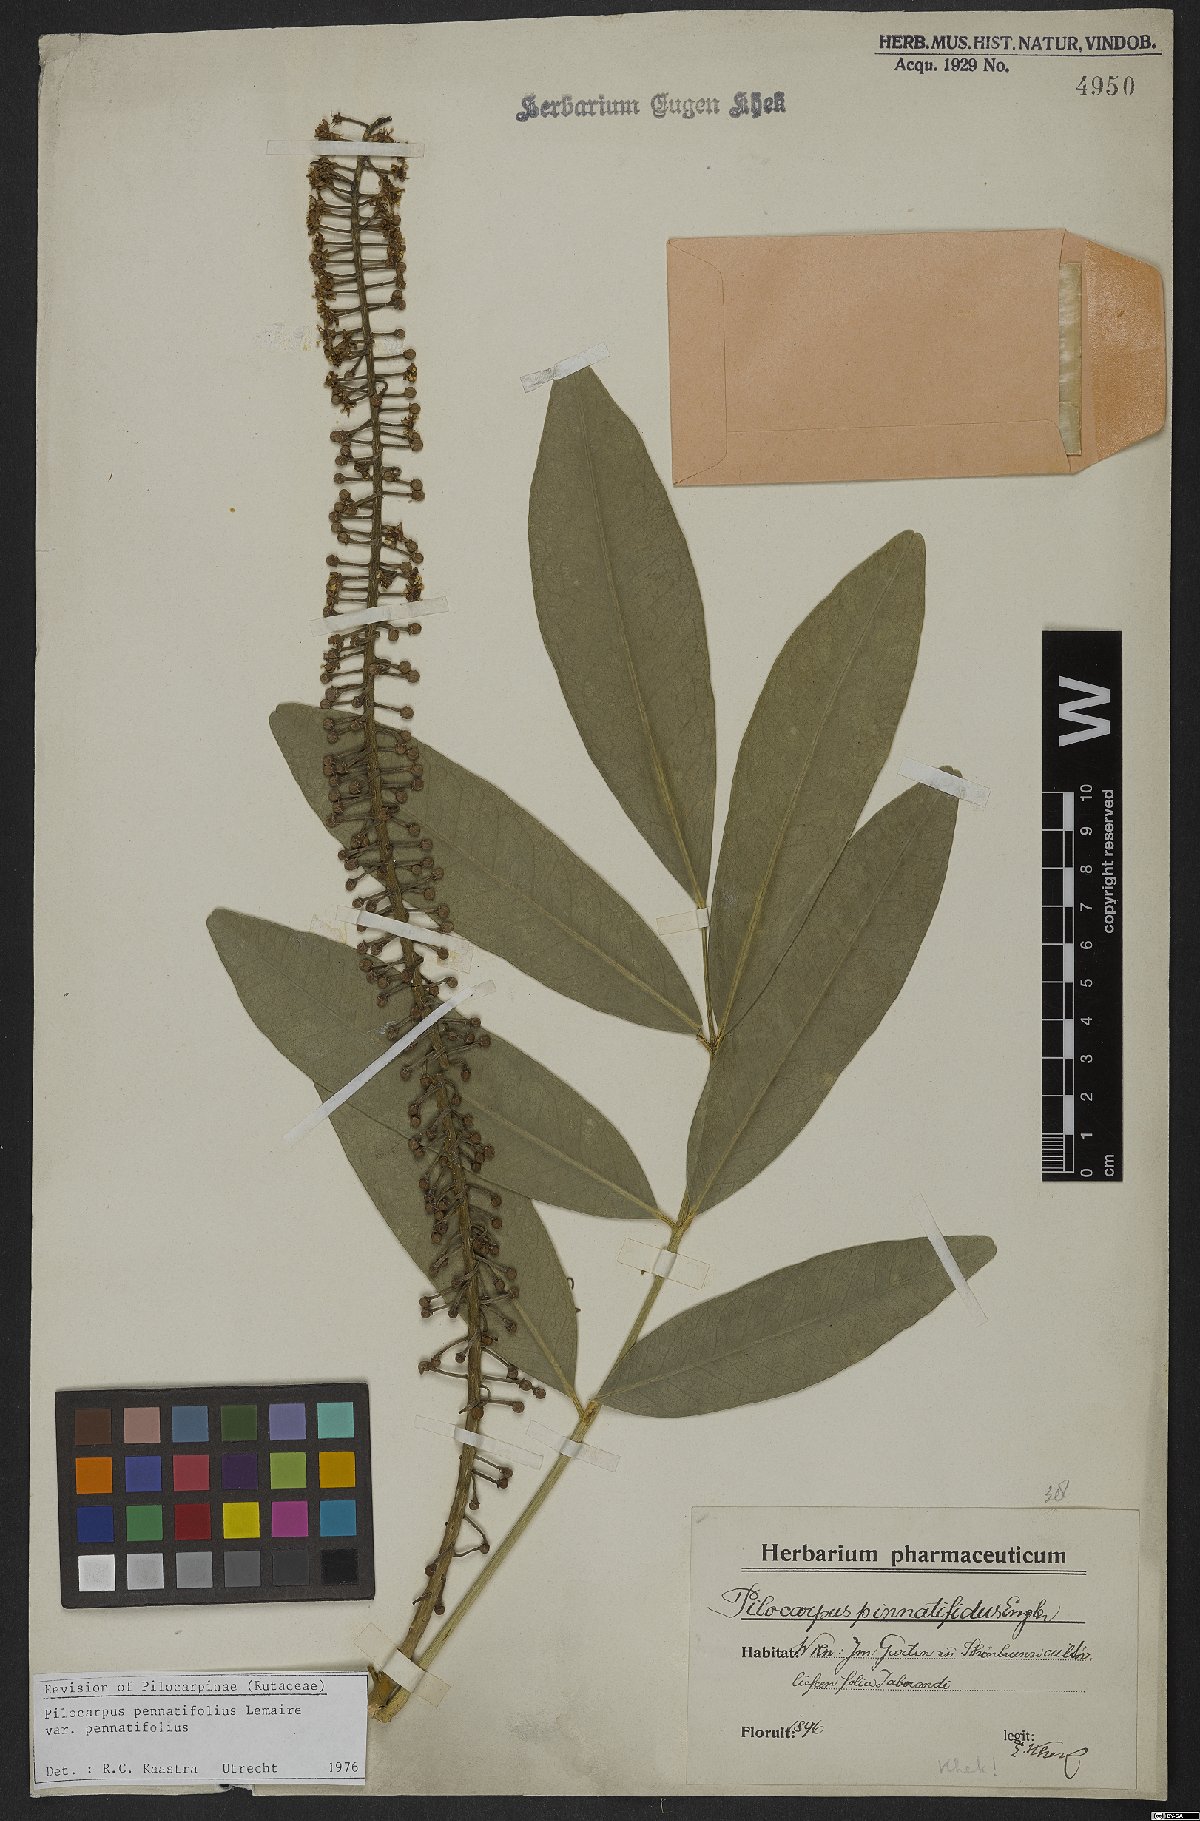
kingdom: Plantae
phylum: Tracheophyta
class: Magnoliopsida
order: Sapindales
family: Rutaceae
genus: Pilocarpus
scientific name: Pilocarpus pennatifolius
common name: Paraguay jaborandi
